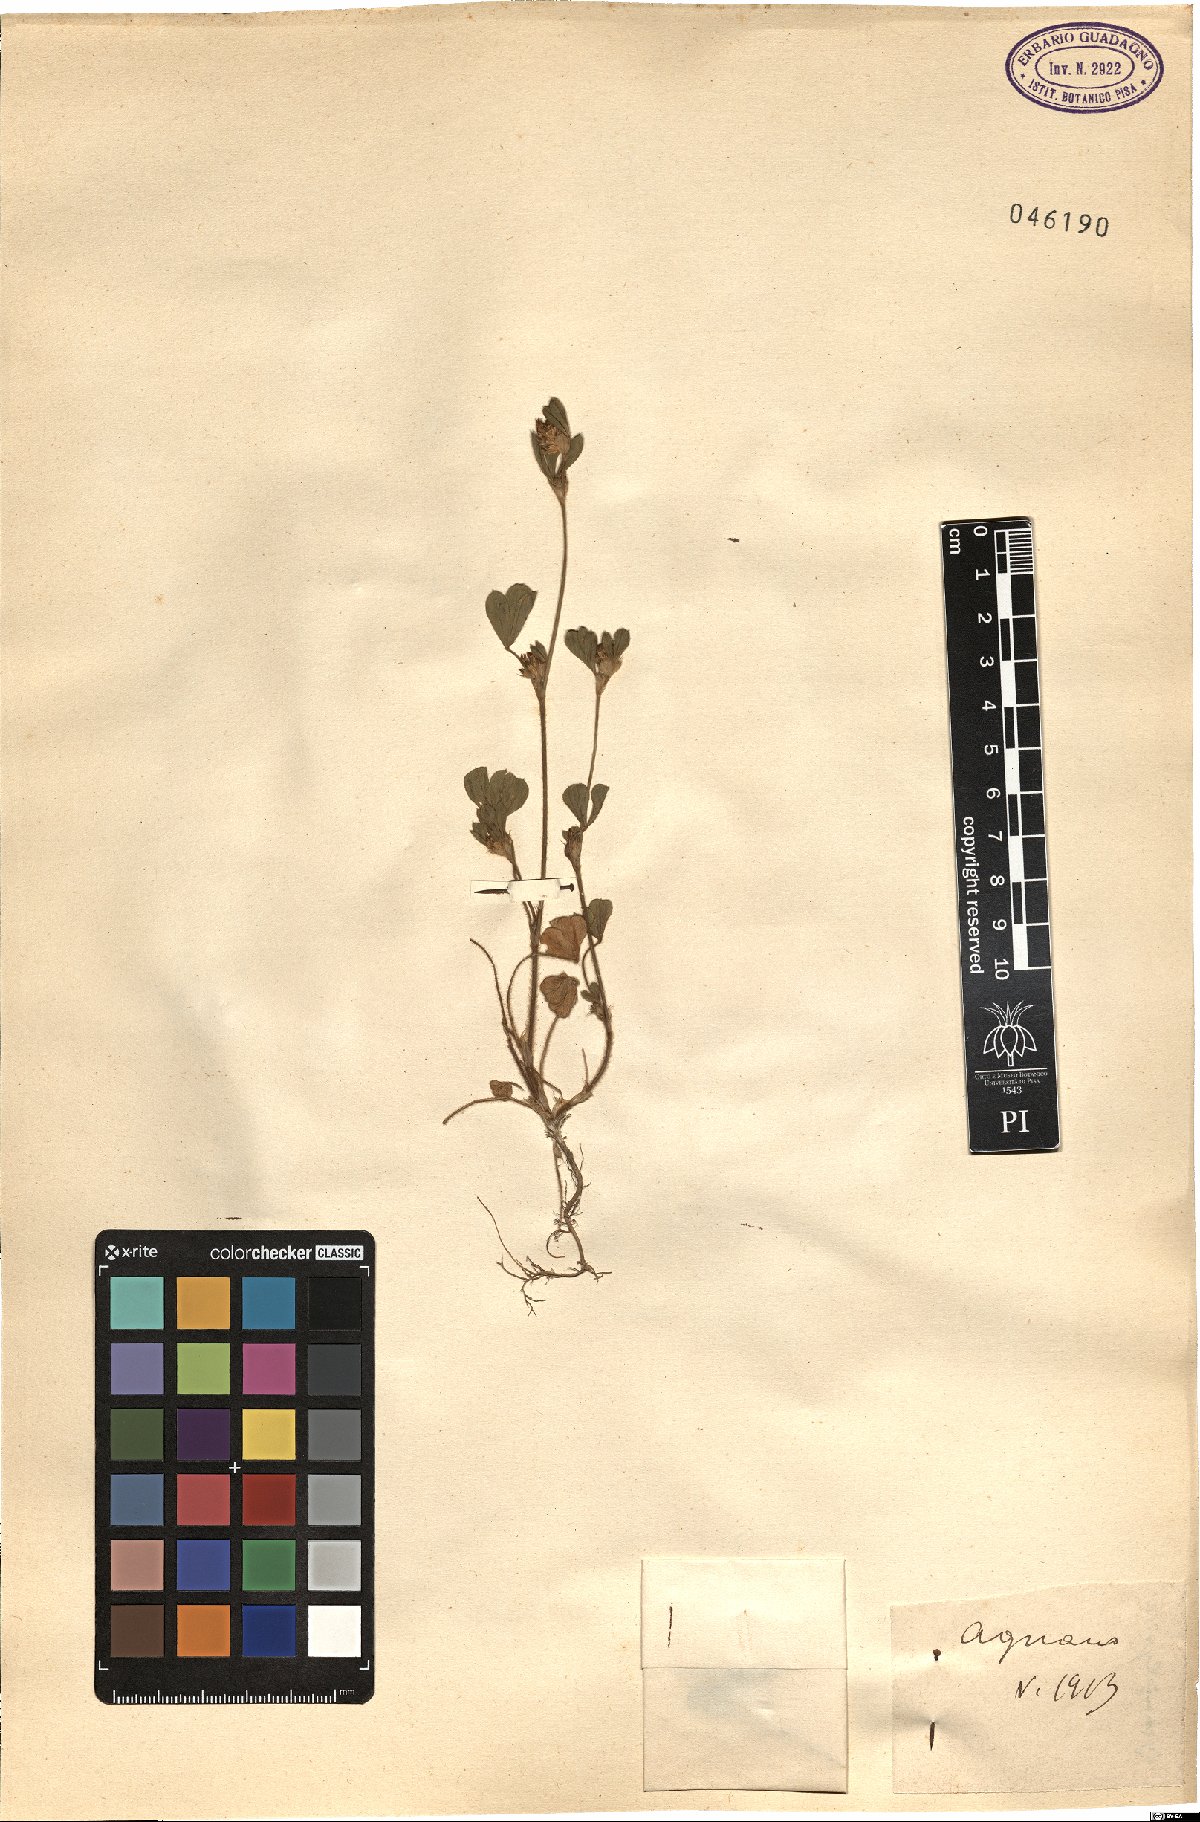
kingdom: Plantae
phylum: Tracheophyta
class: Magnoliopsida
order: Fabales
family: Fabaceae
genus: Trifolium
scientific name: Trifolium
